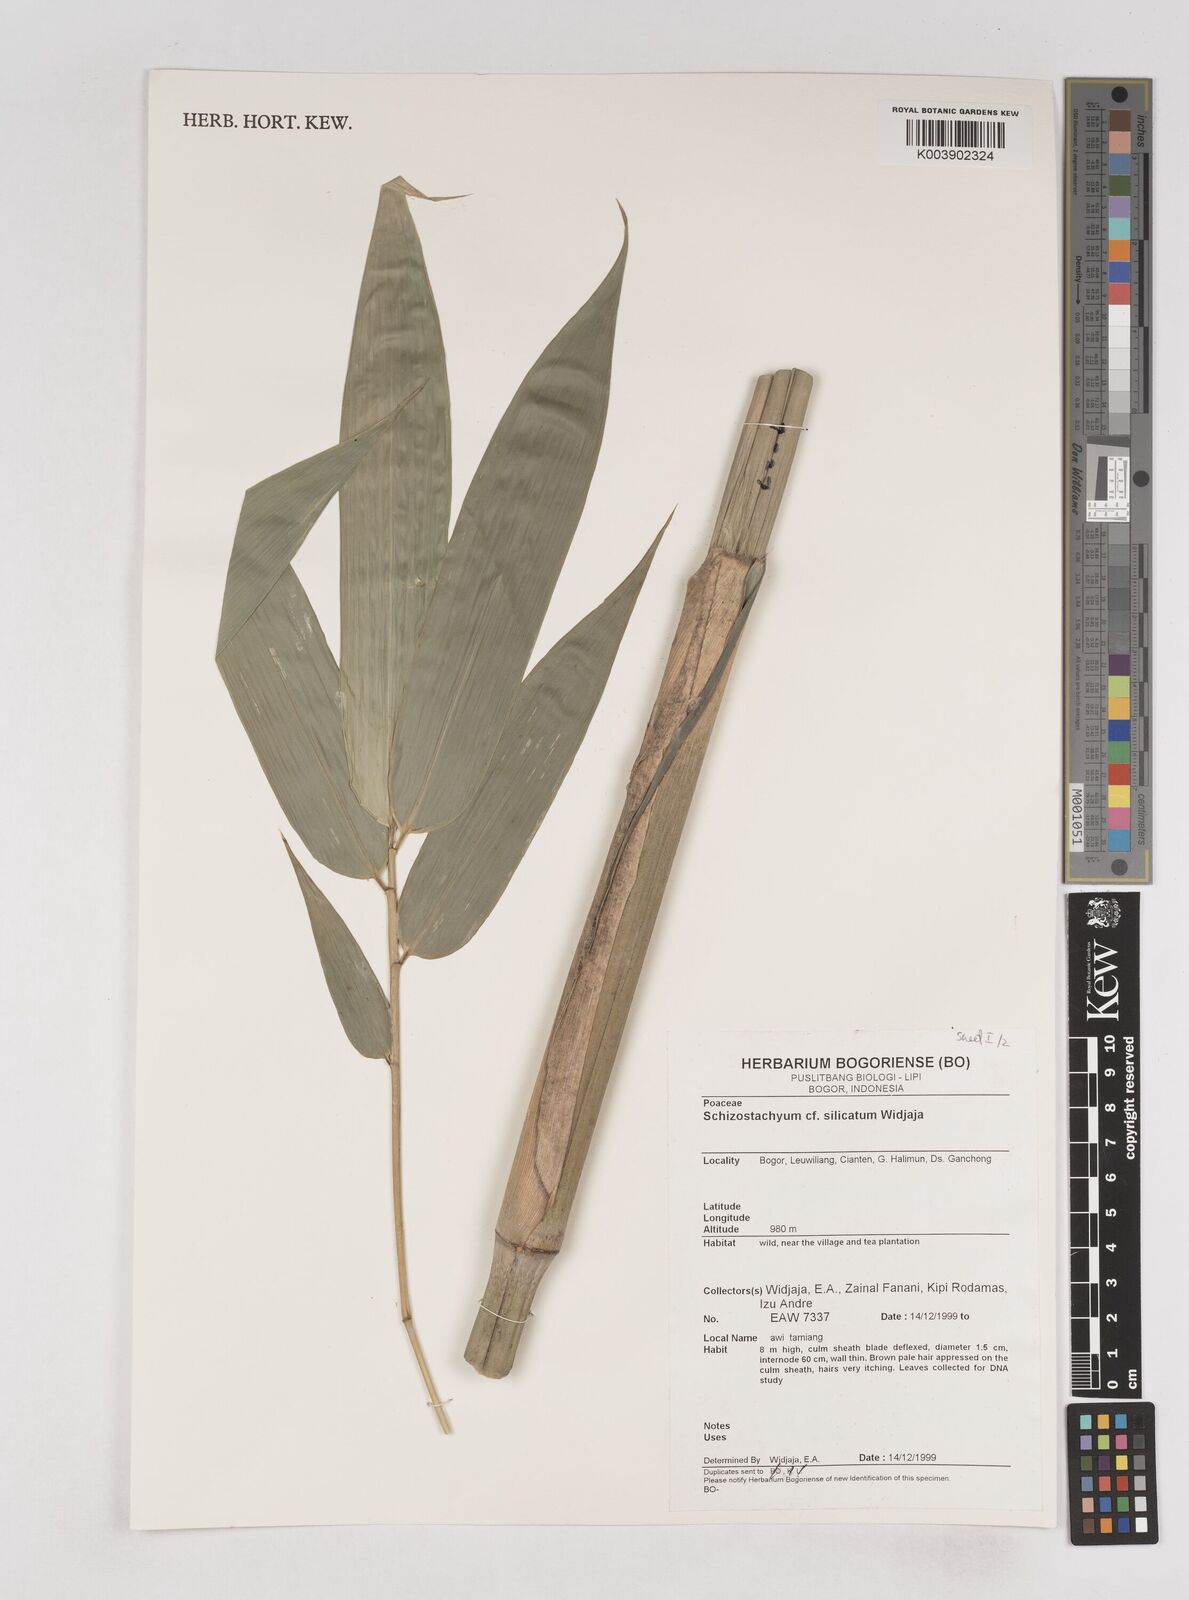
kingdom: Plantae
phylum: Tracheophyta
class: Liliopsida
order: Poales
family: Poaceae
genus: Schizostachyum
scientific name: Schizostachyum silicatum
